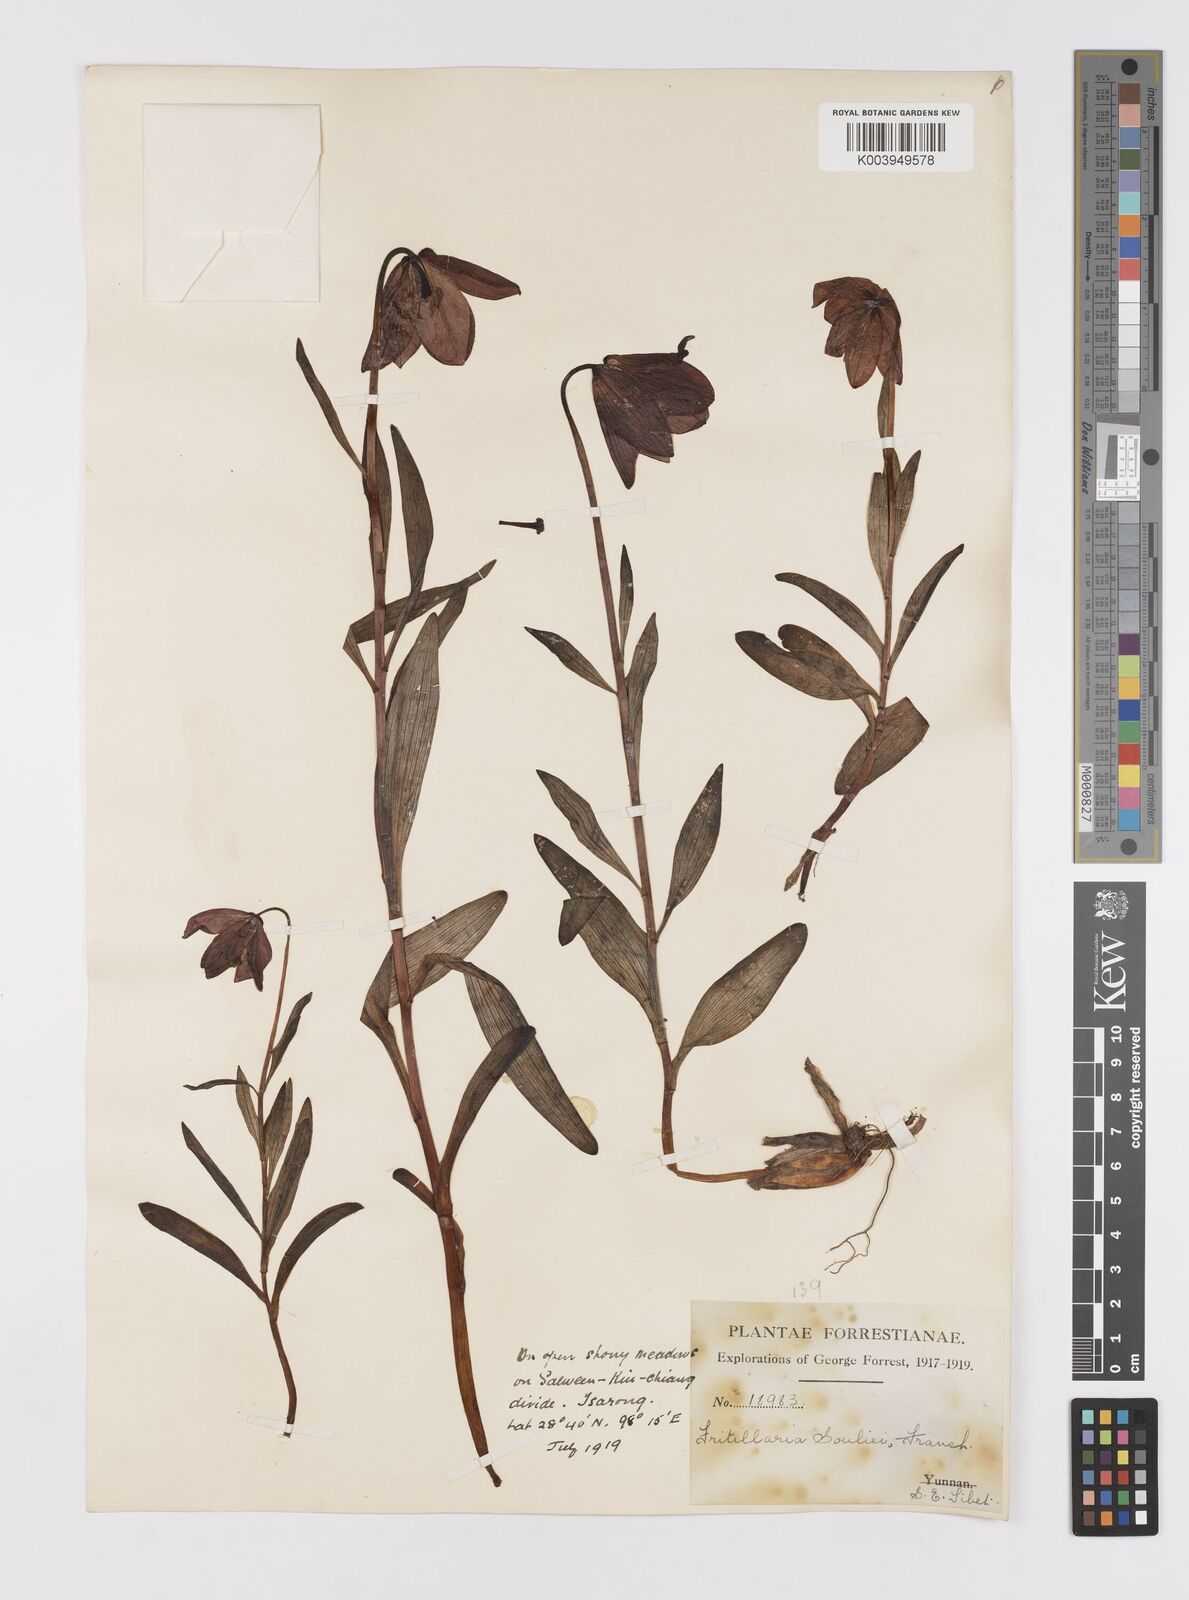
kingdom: Plantae
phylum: Tracheophyta
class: Liliopsida
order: Liliales
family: Liliaceae
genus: Lilium
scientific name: Lilium souliei
